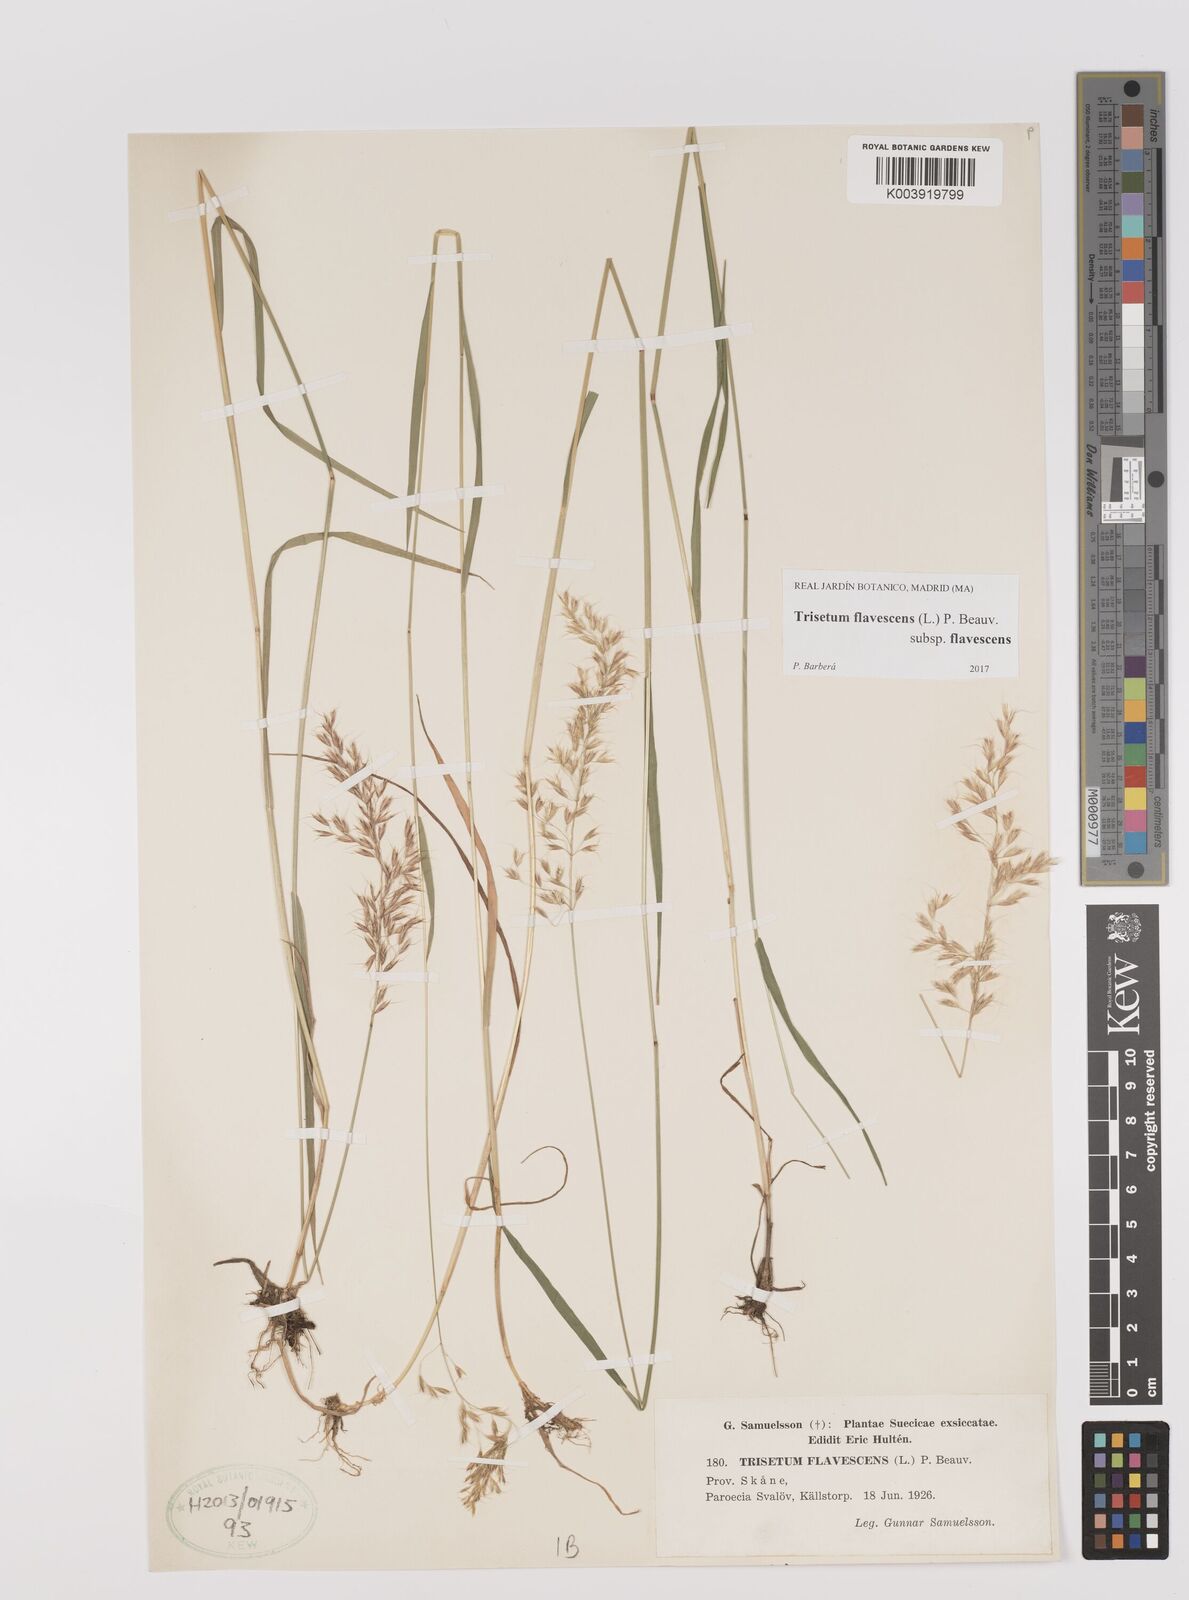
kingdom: Plantae
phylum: Tracheophyta
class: Liliopsida
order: Poales
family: Poaceae
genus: Trisetum
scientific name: Trisetum flavescens
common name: Yellow oat-grass
